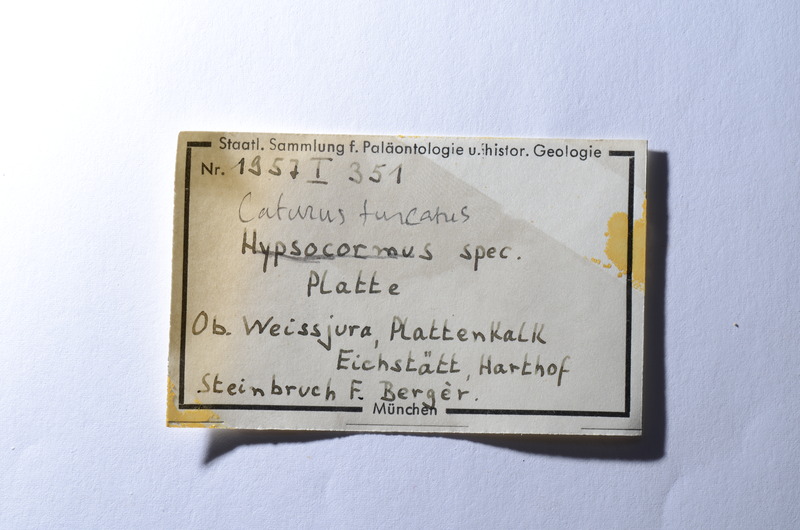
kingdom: Animalia
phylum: Chordata
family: Pachycormidae
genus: Hypsocormus
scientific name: Hypsocormus
